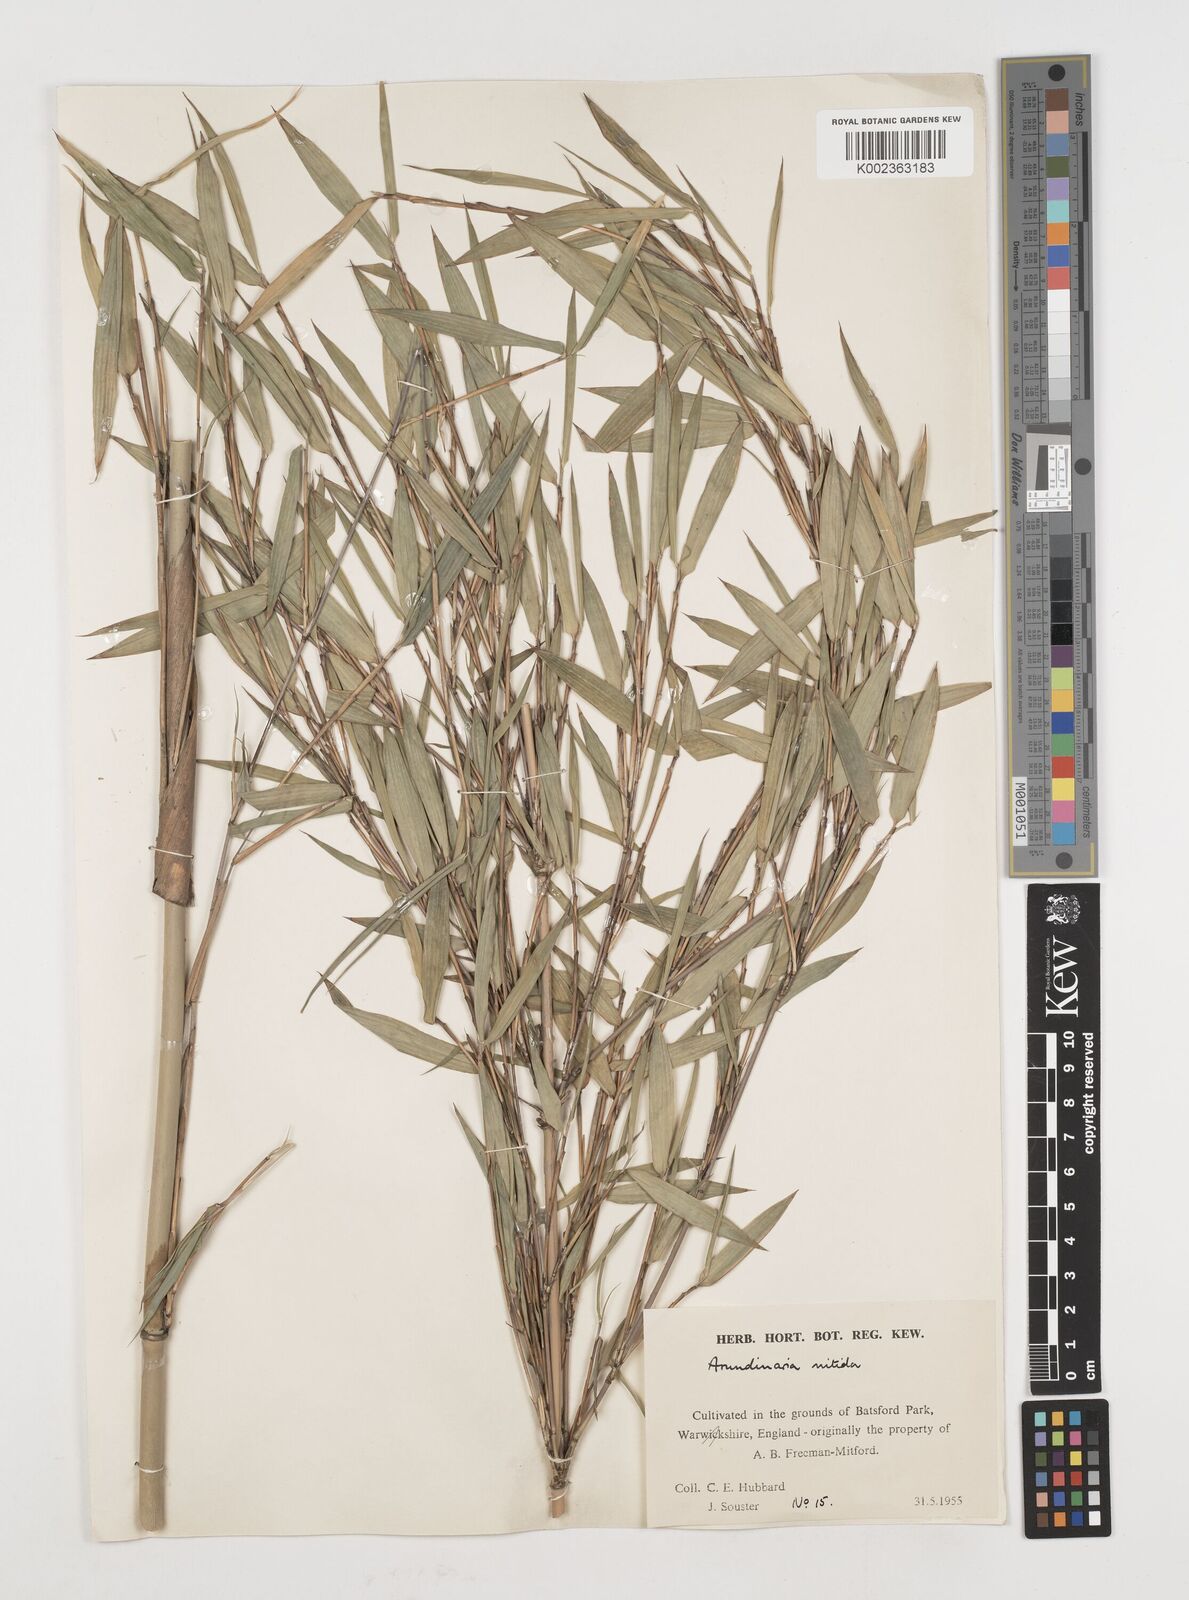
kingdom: Plantae
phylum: Tracheophyta
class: Liliopsida
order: Poales
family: Poaceae
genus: Fargesia
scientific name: Fargesia nitida ex
